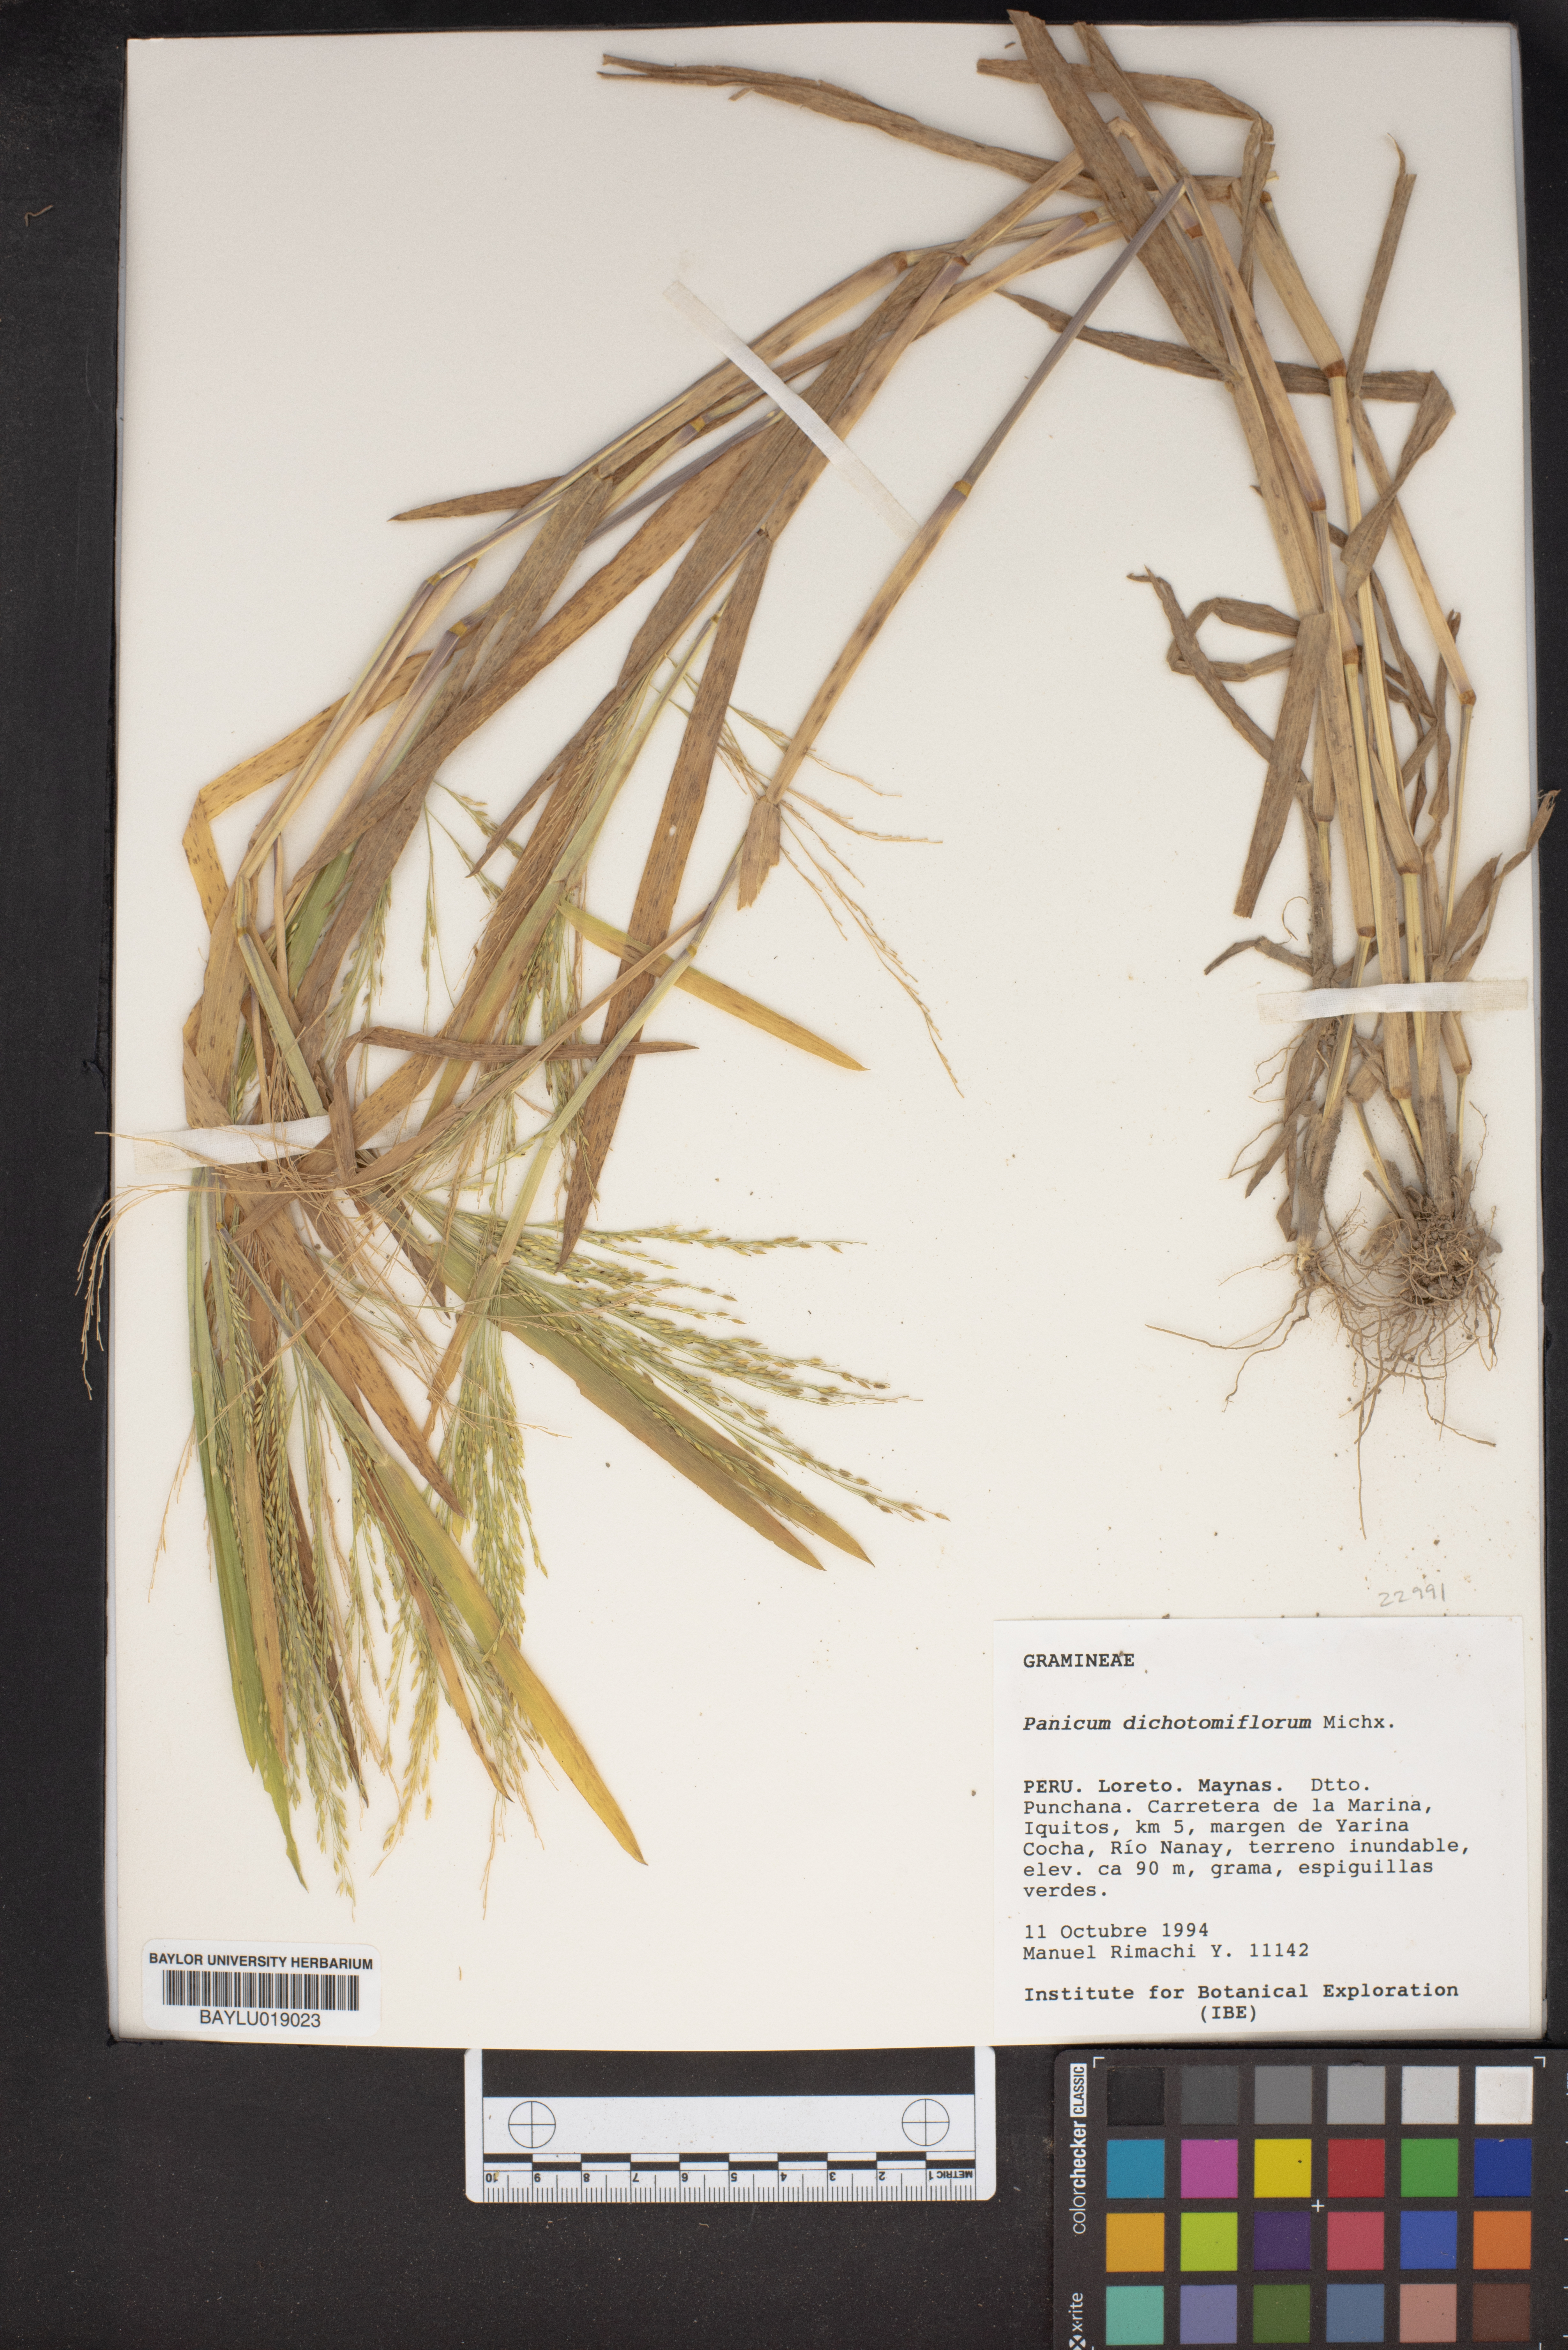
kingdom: Plantae
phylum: Tracheophyta
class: Liliopsida
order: Poales
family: Poaceae
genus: Panicum
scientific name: Panicum dichotomiflorum
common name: Autumn millet
